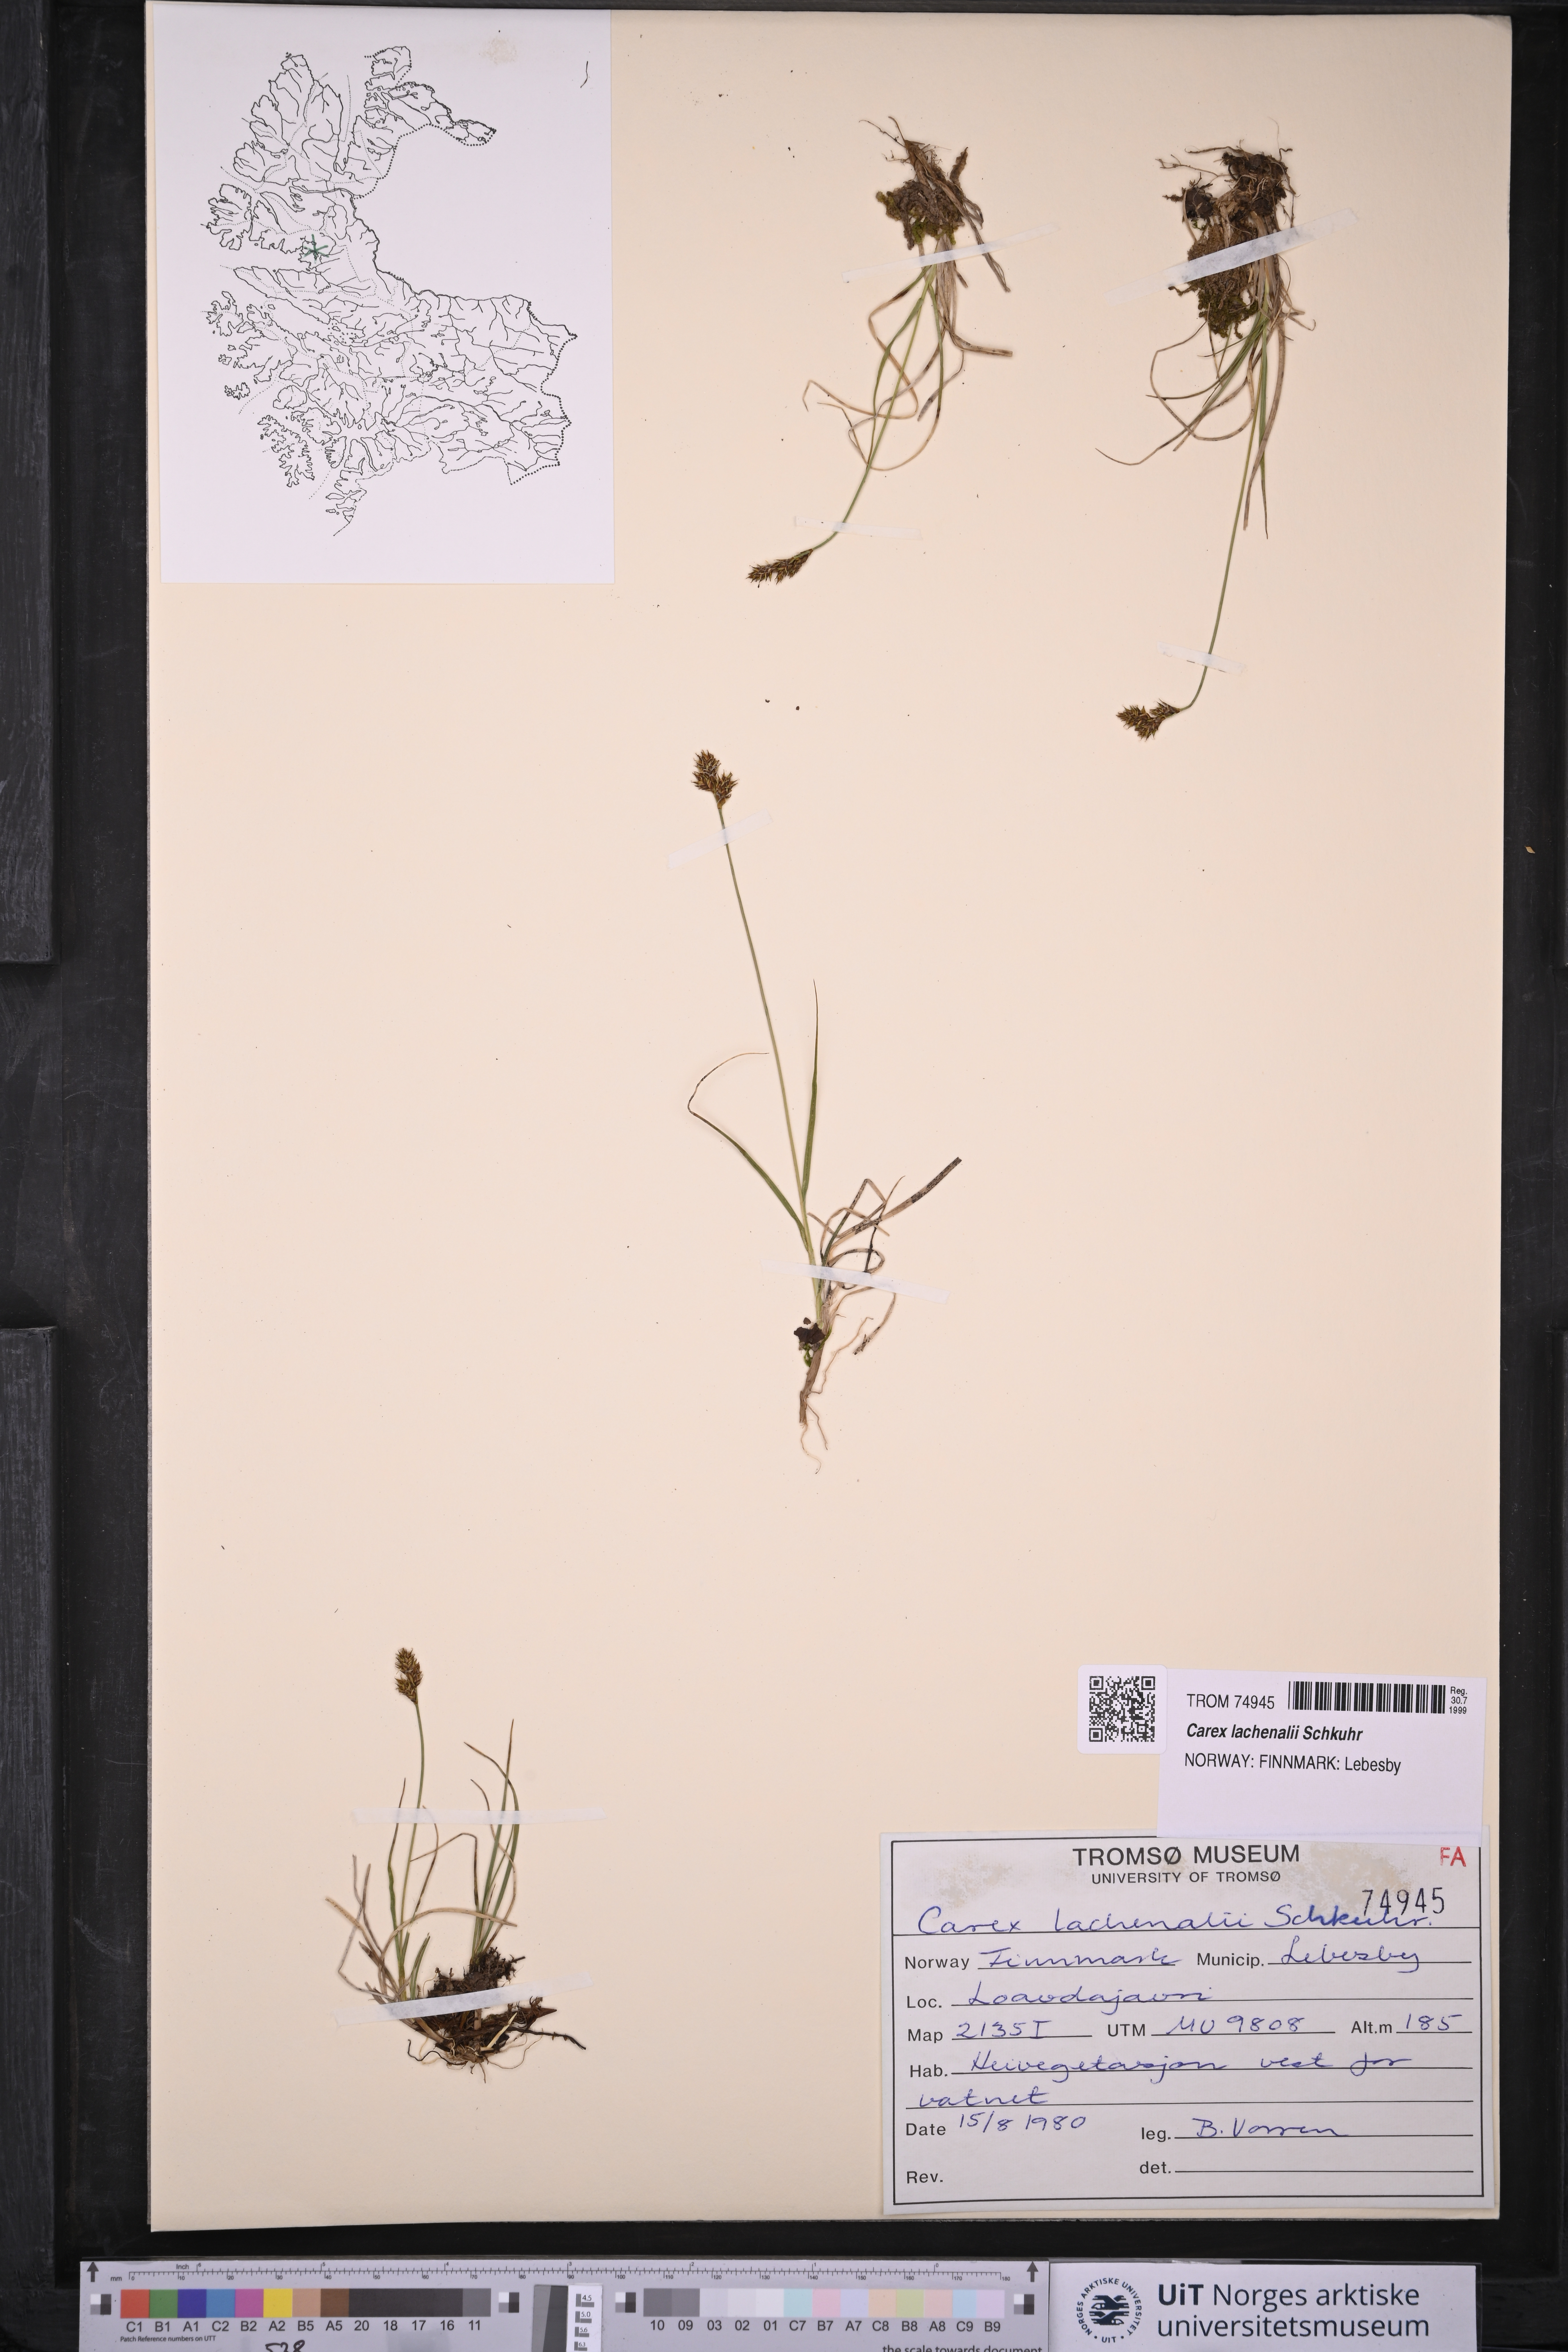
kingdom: Plantae
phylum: Tracheophyta
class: Liliopsida
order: Poales
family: Cyperaceae
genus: Carex
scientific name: Carex lachenalii
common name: Hare's-foot sedge
